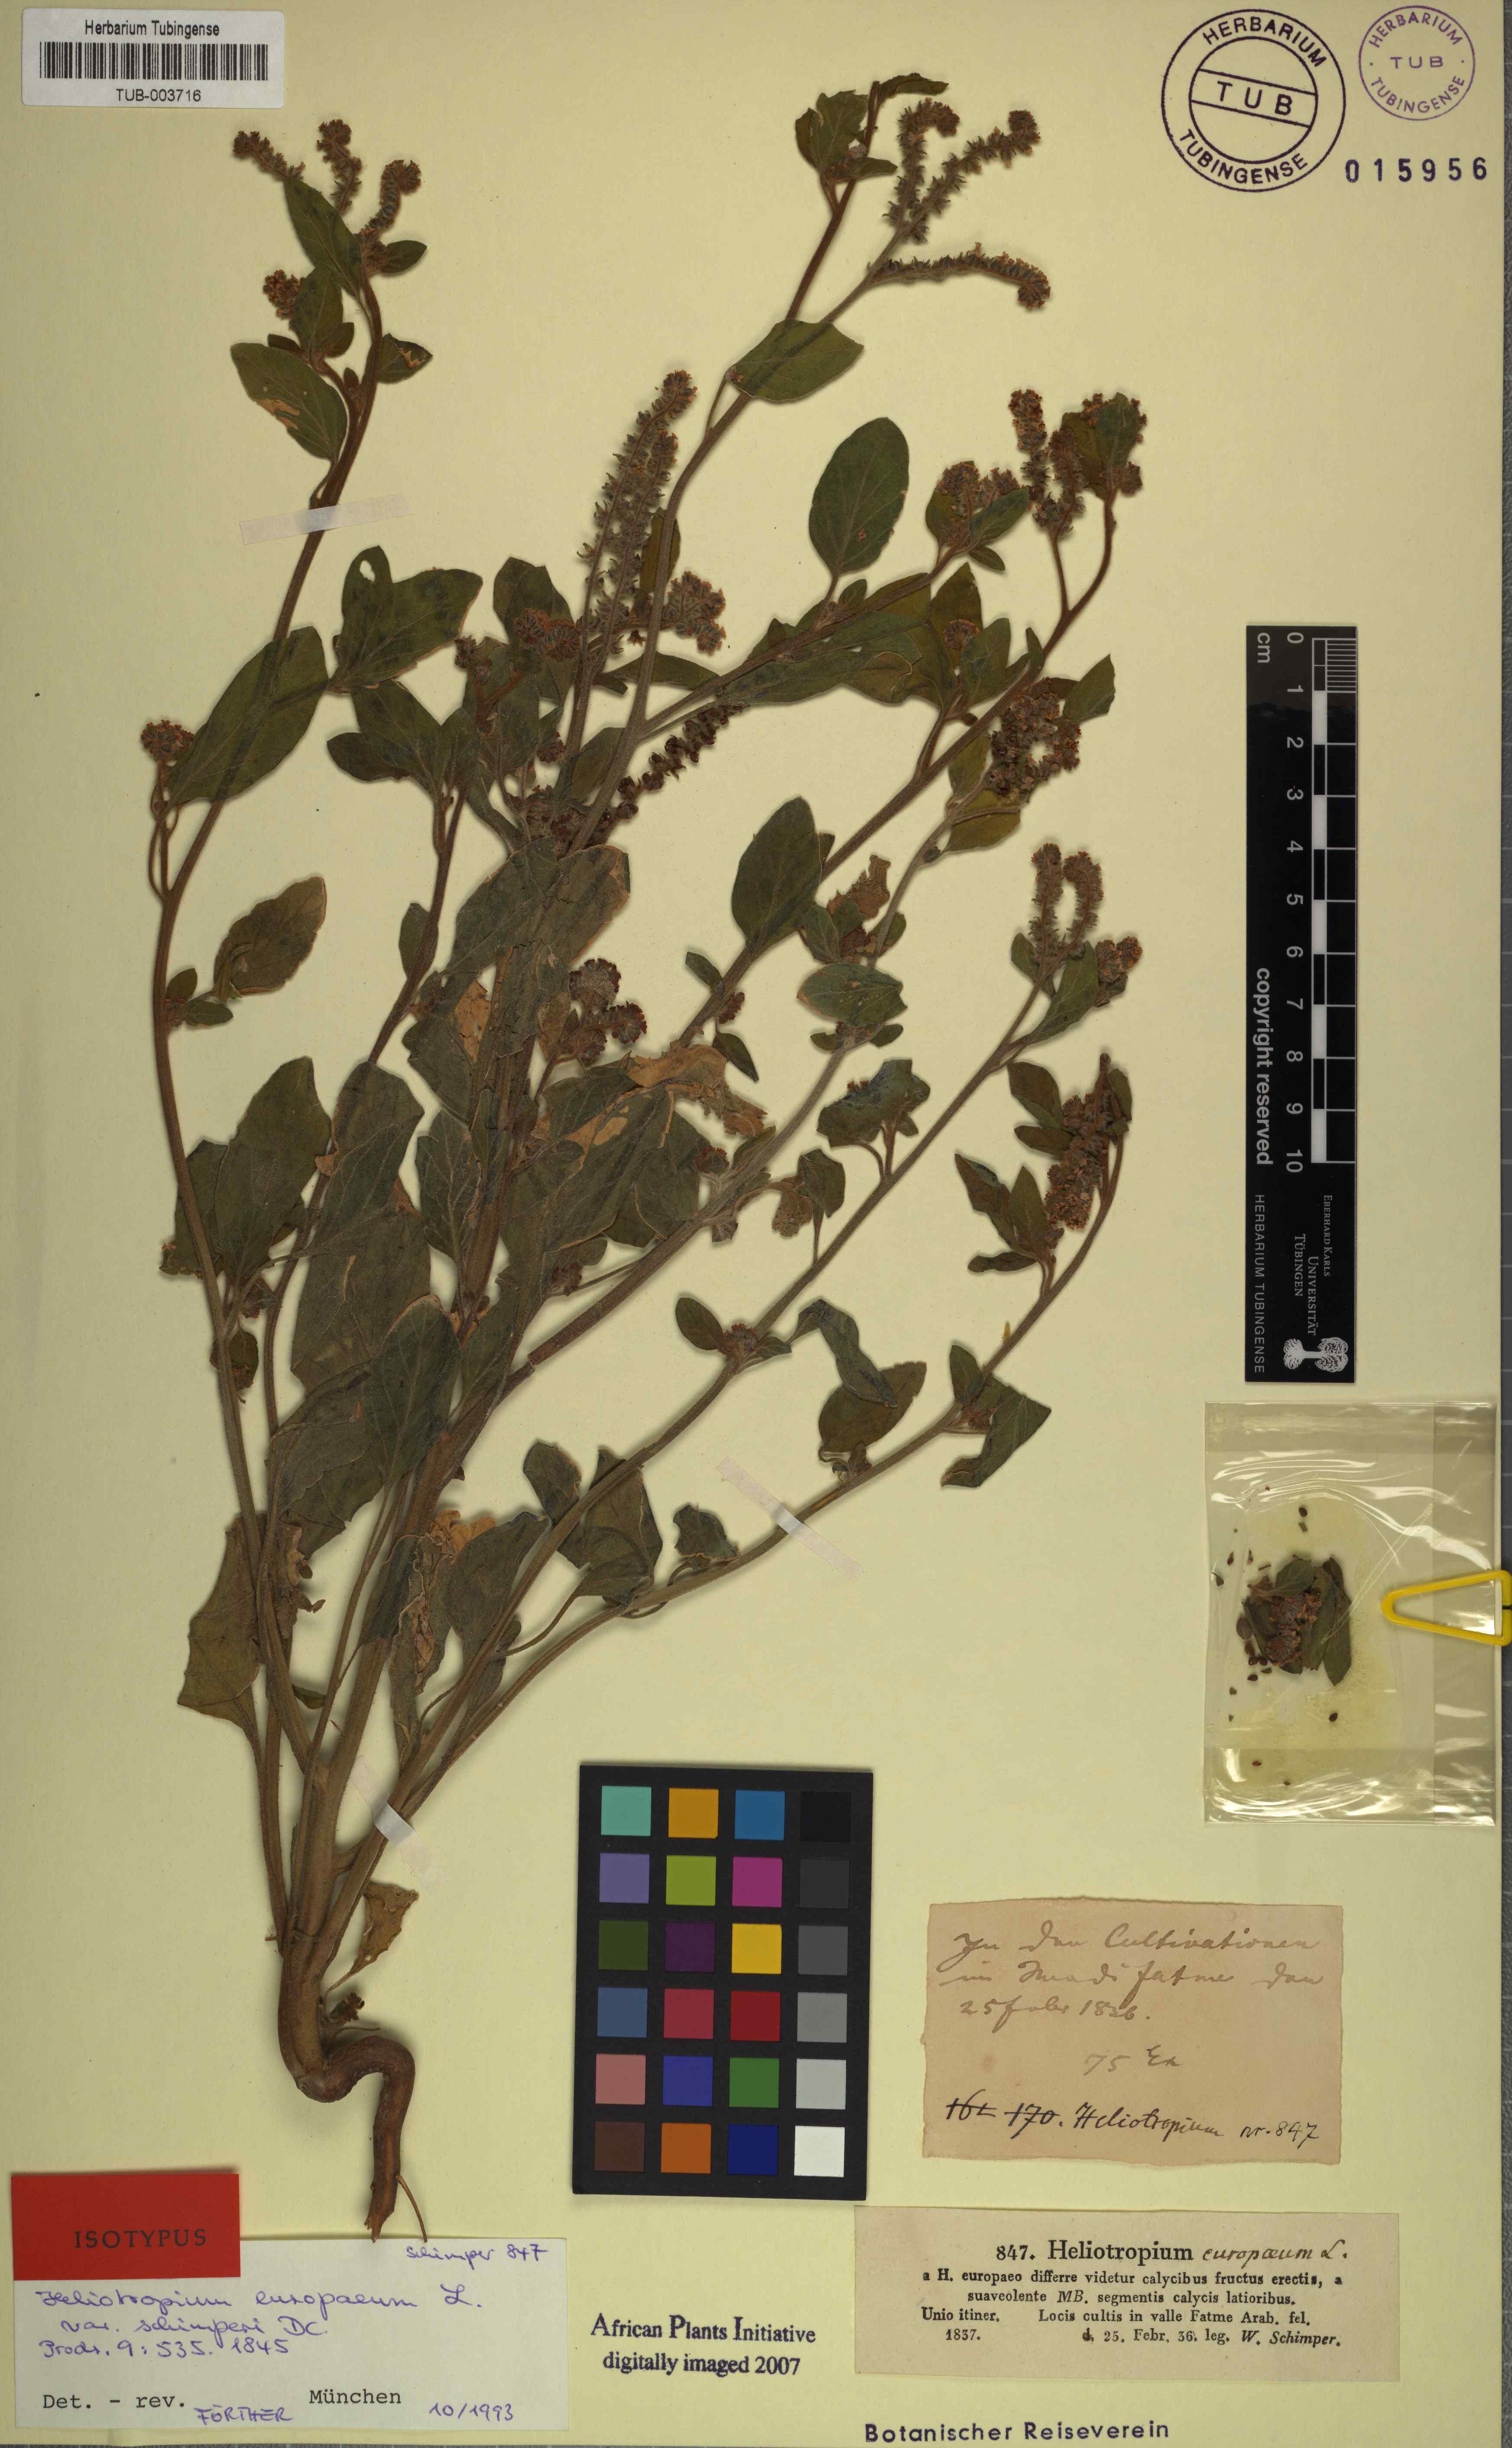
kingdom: Plantae
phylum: Tracheophyta
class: Magnoliopsida
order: Boraginales
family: Heliotropiaceae
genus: Heliotropium
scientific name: Heliotropium europaeum
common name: European heliotrope
